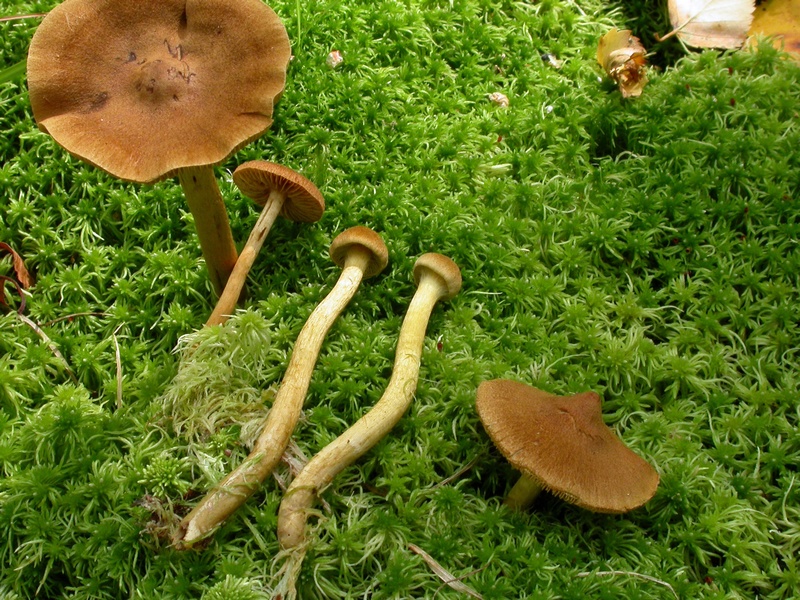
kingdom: Fungi
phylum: Basidiomycota
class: Agaricomycetes
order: Agaricales
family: Cortinariaceae
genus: Cortinarius
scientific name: Cortinarius subfusipes
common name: højmose-slørhat
